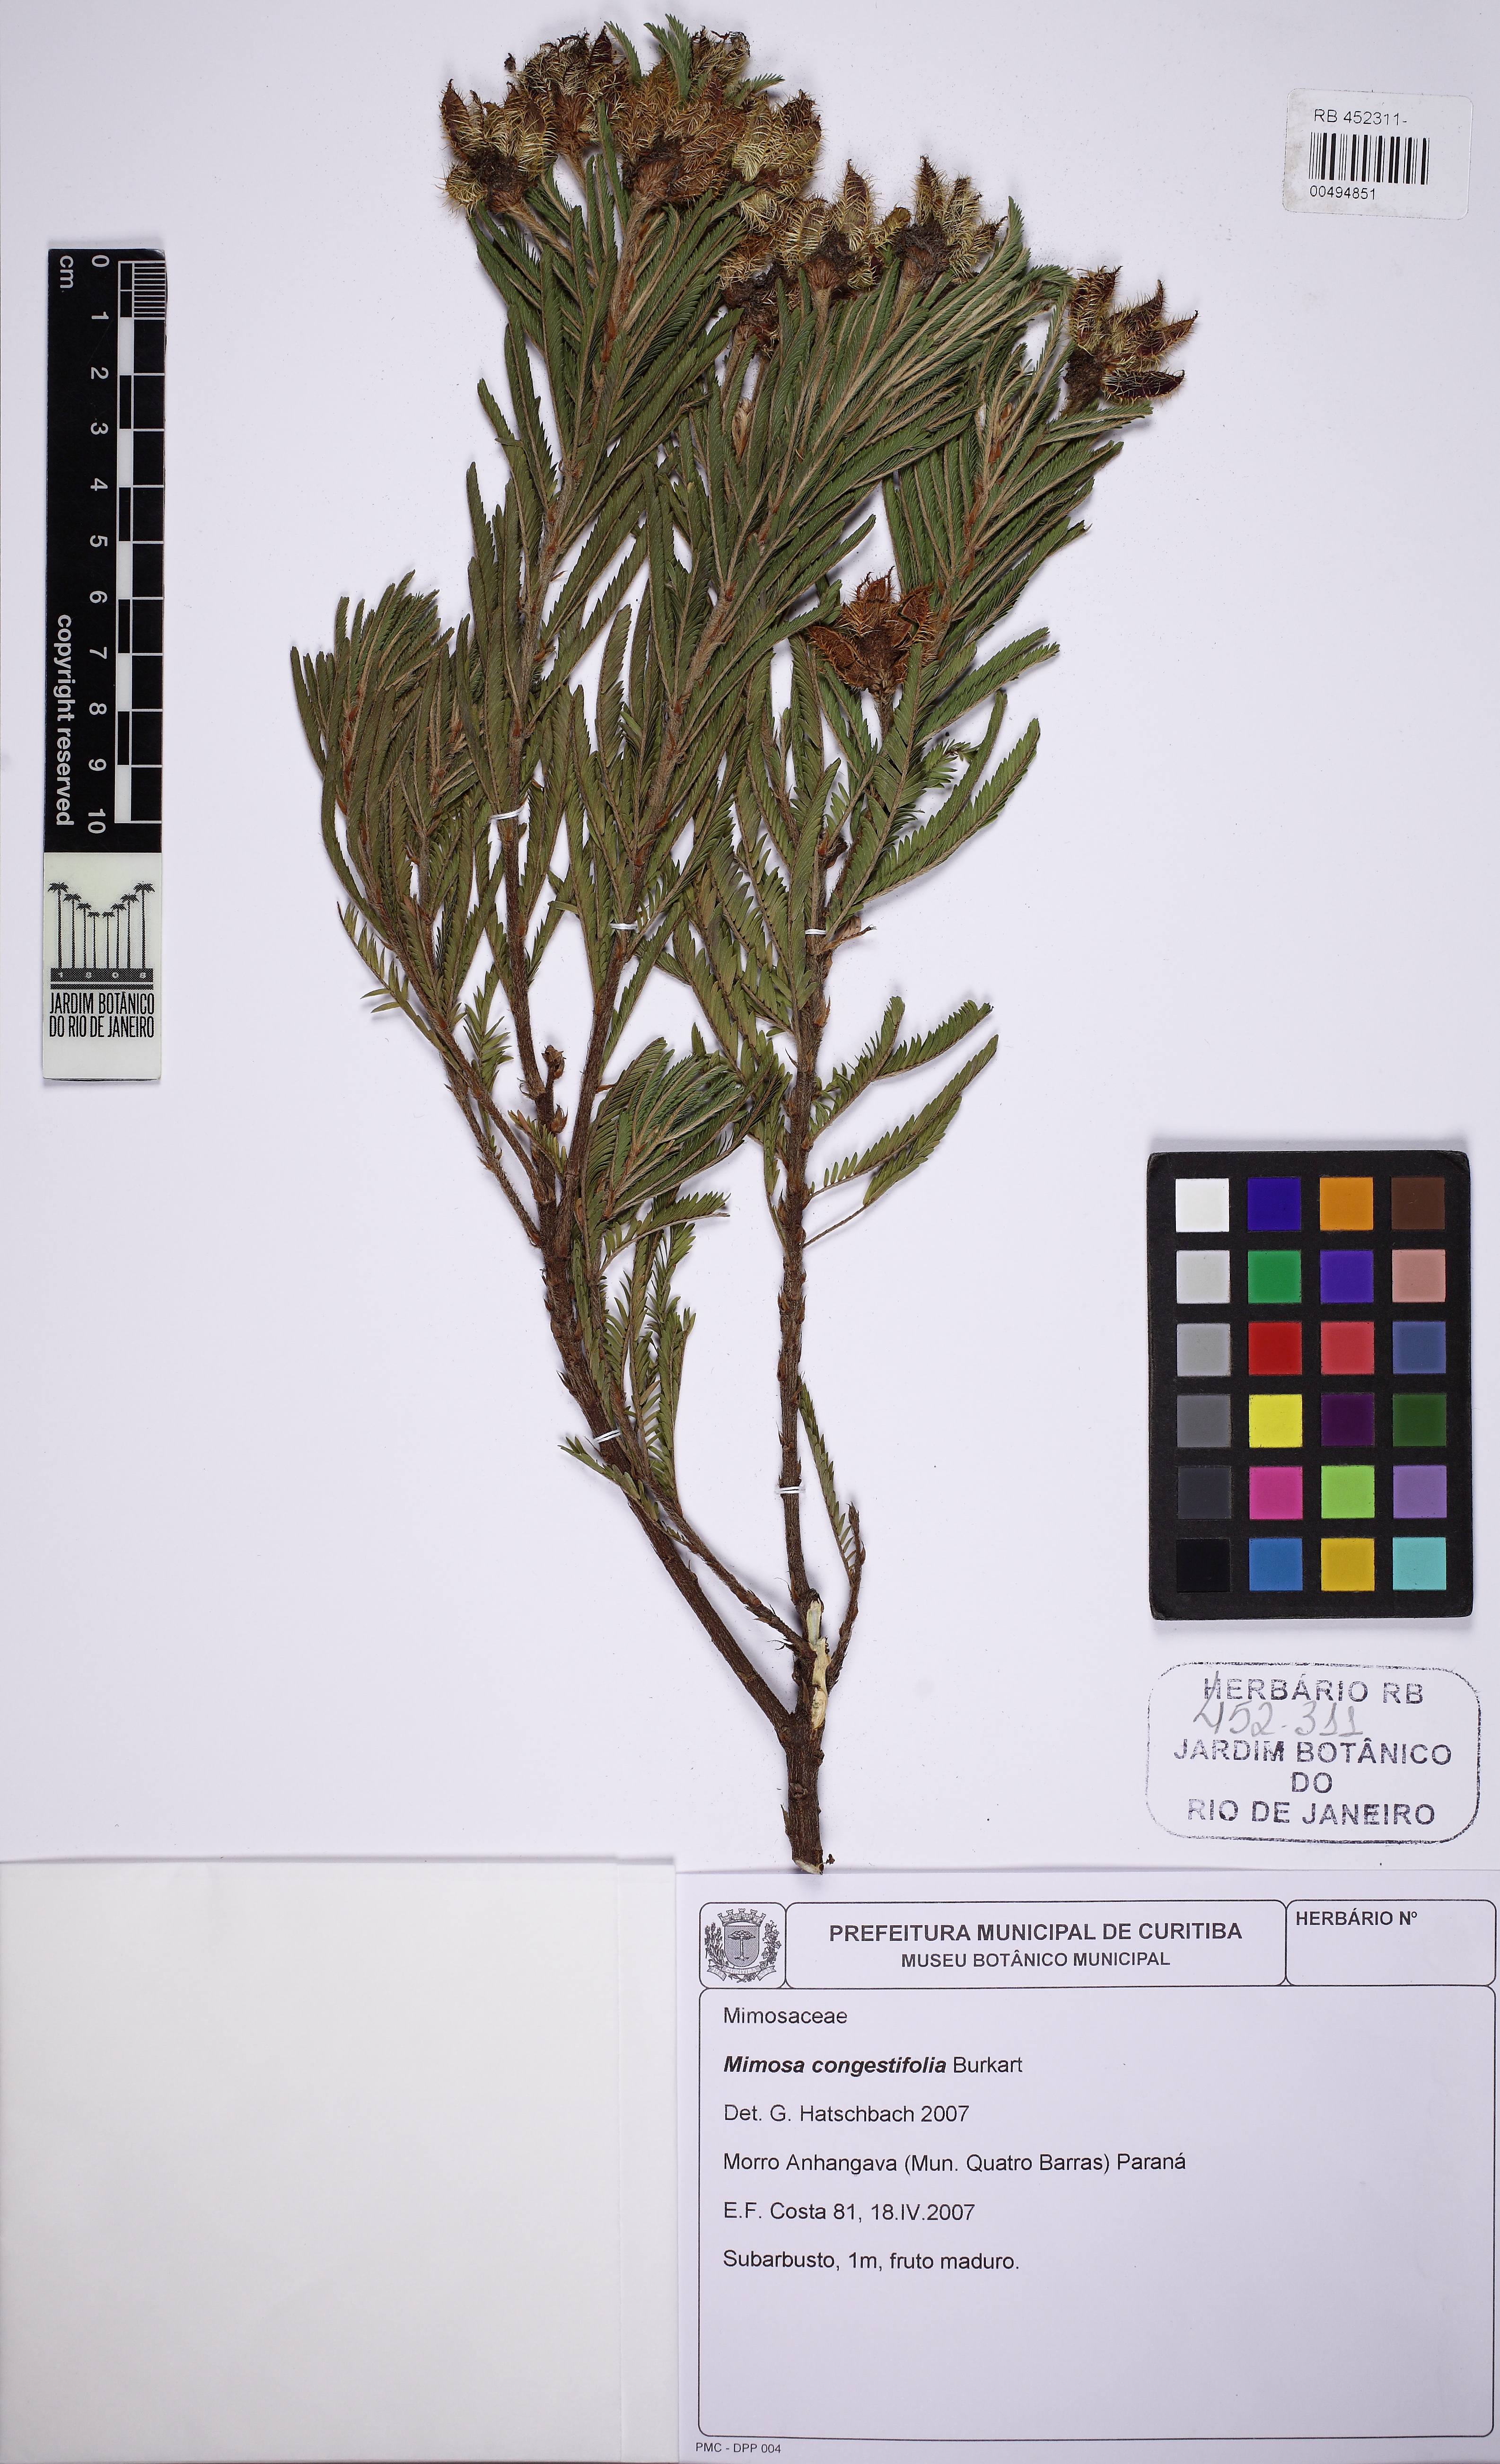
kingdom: Plantae
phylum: Tracheophyta
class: Magnoliopsida
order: Fabales
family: Fabaceae
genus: Mimosa
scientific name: Mimosa congestifolia
